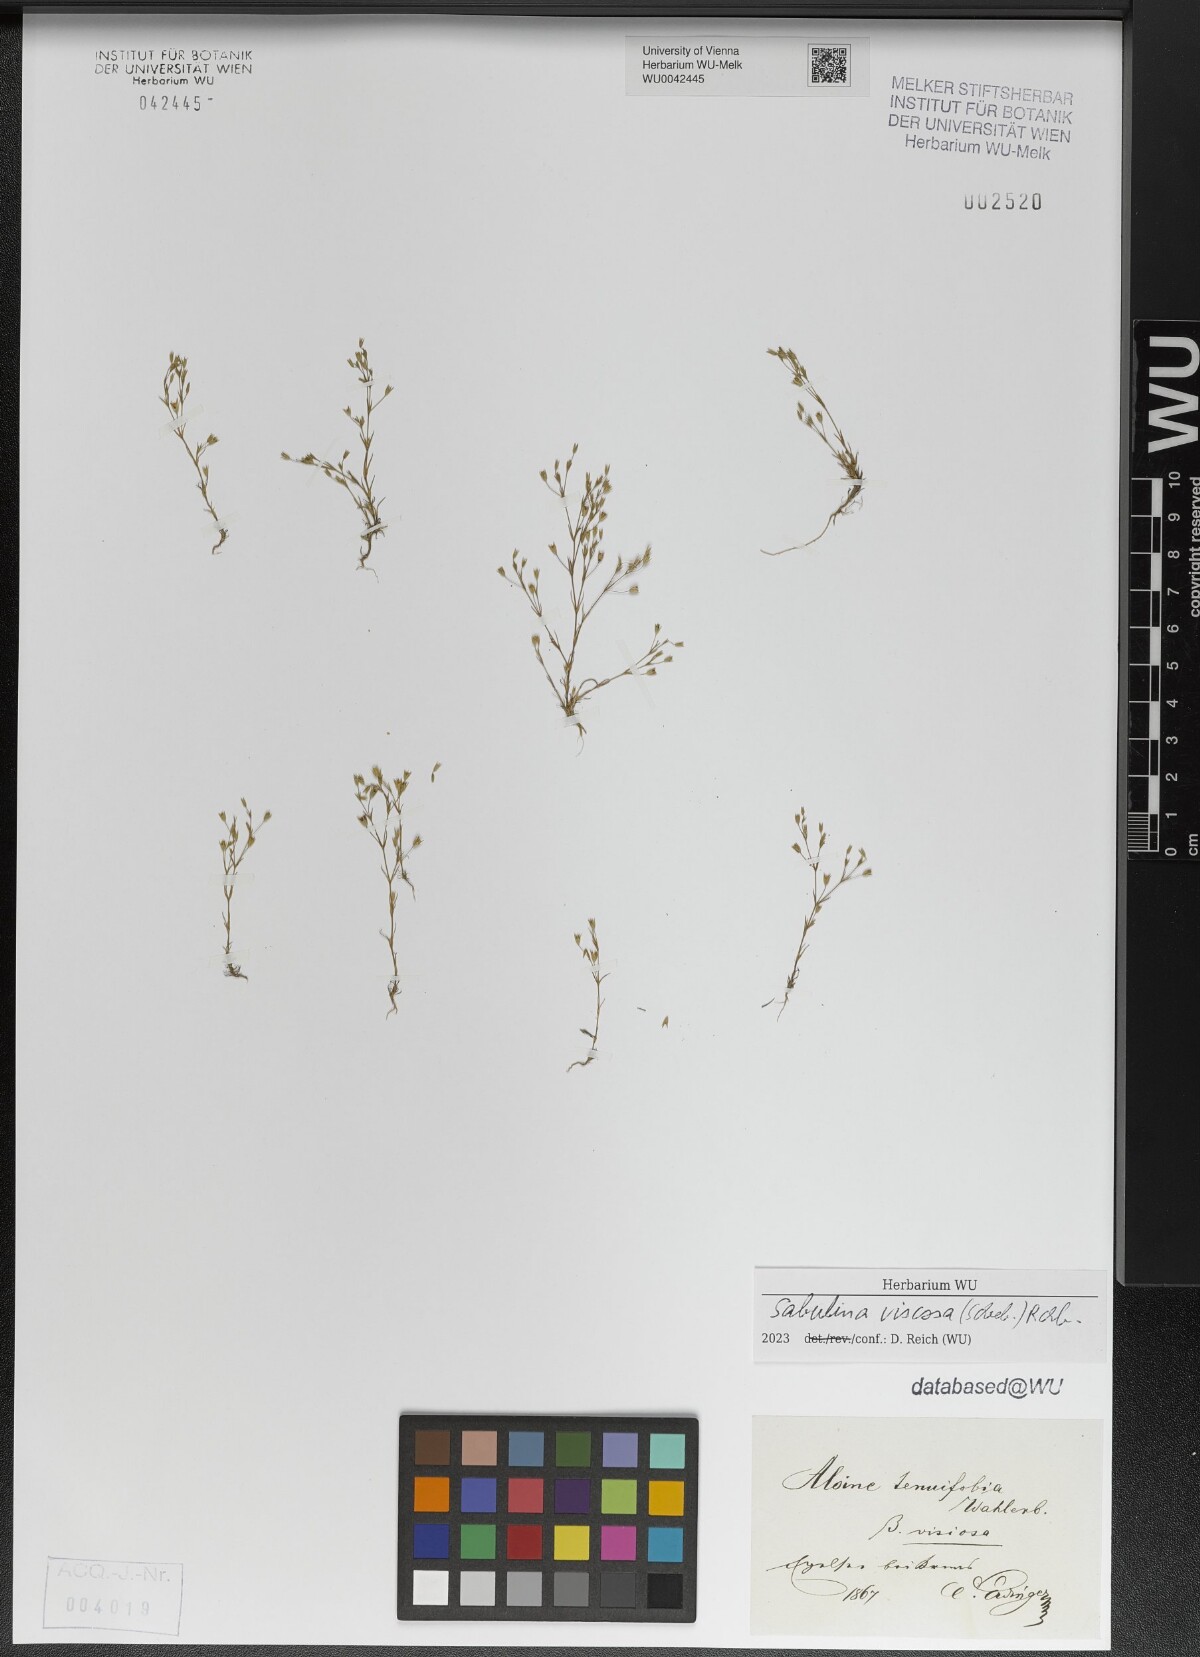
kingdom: Plantae
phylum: Tracheophyta
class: Magnoliopsida
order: Caryophyllales
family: Caryophyllaceae
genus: Sabulina
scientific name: Sabulina viscosa
